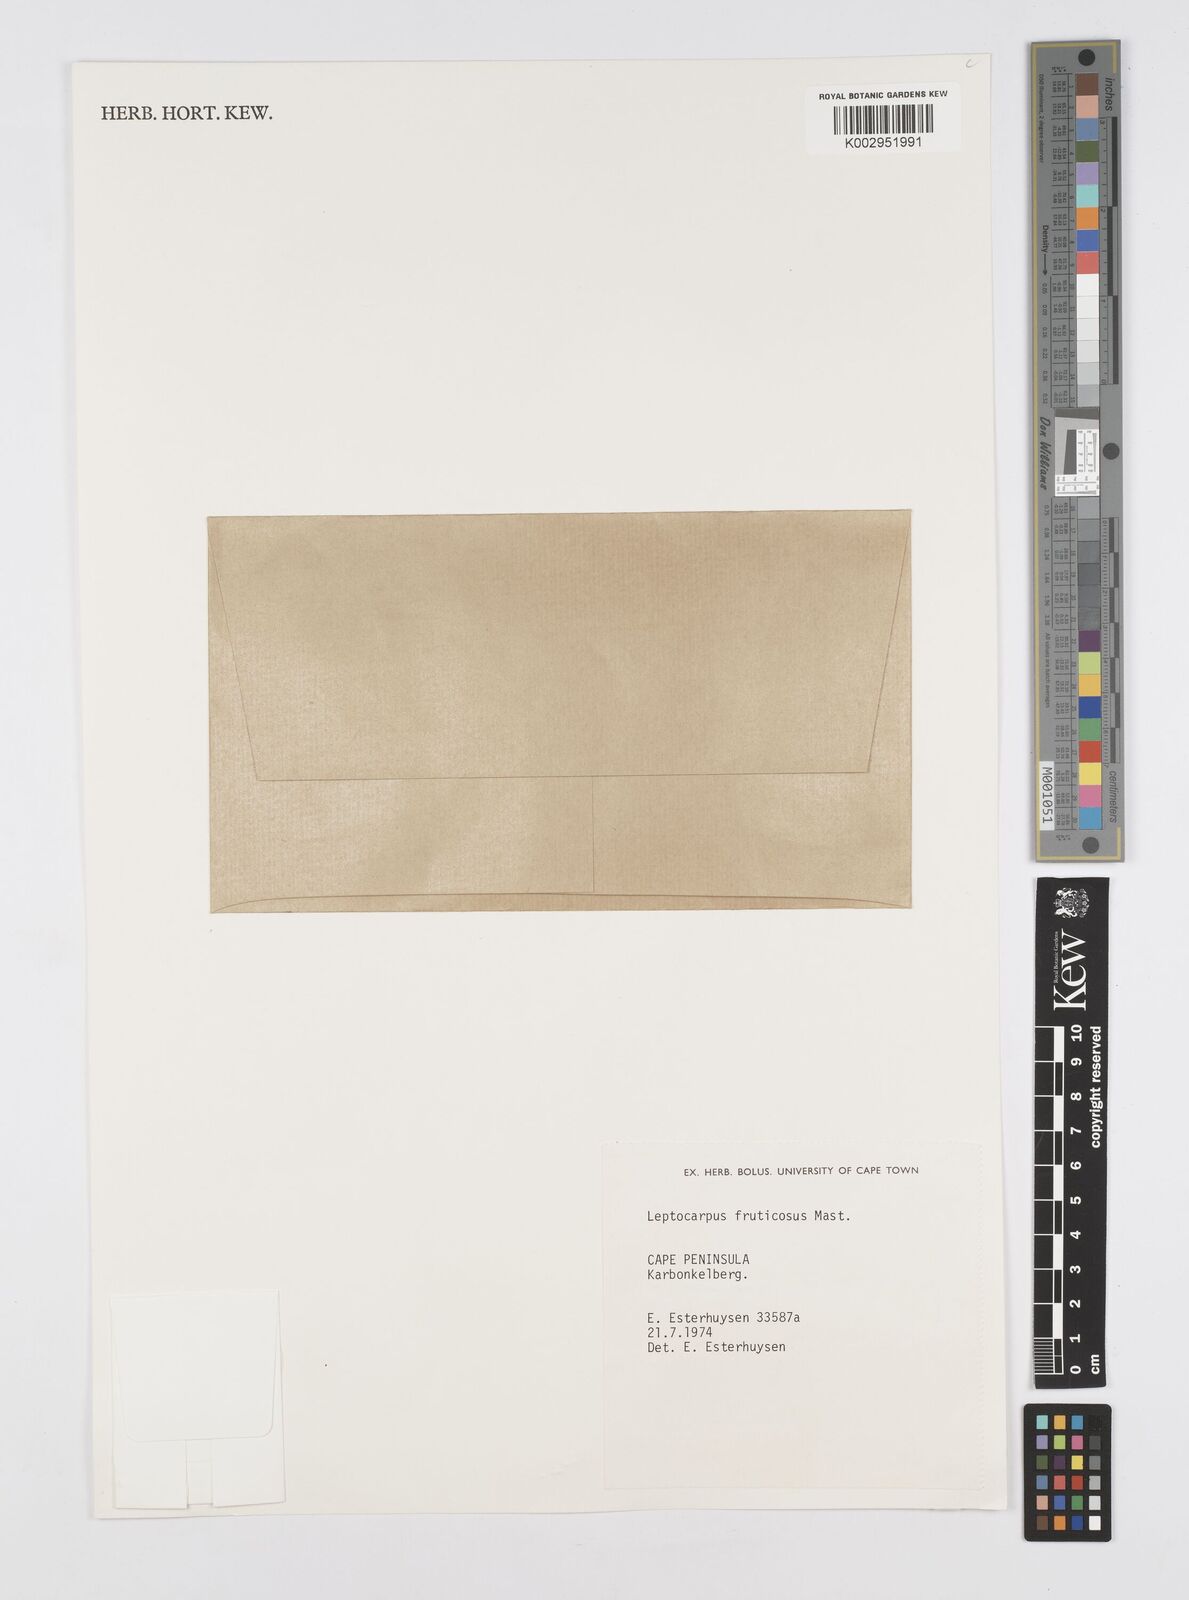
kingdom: Plantae
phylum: Tracheophyta
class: Liliopsida
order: Poales
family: Restionaceae
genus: Rhodocoma
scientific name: Rhodocoma fruticosa
